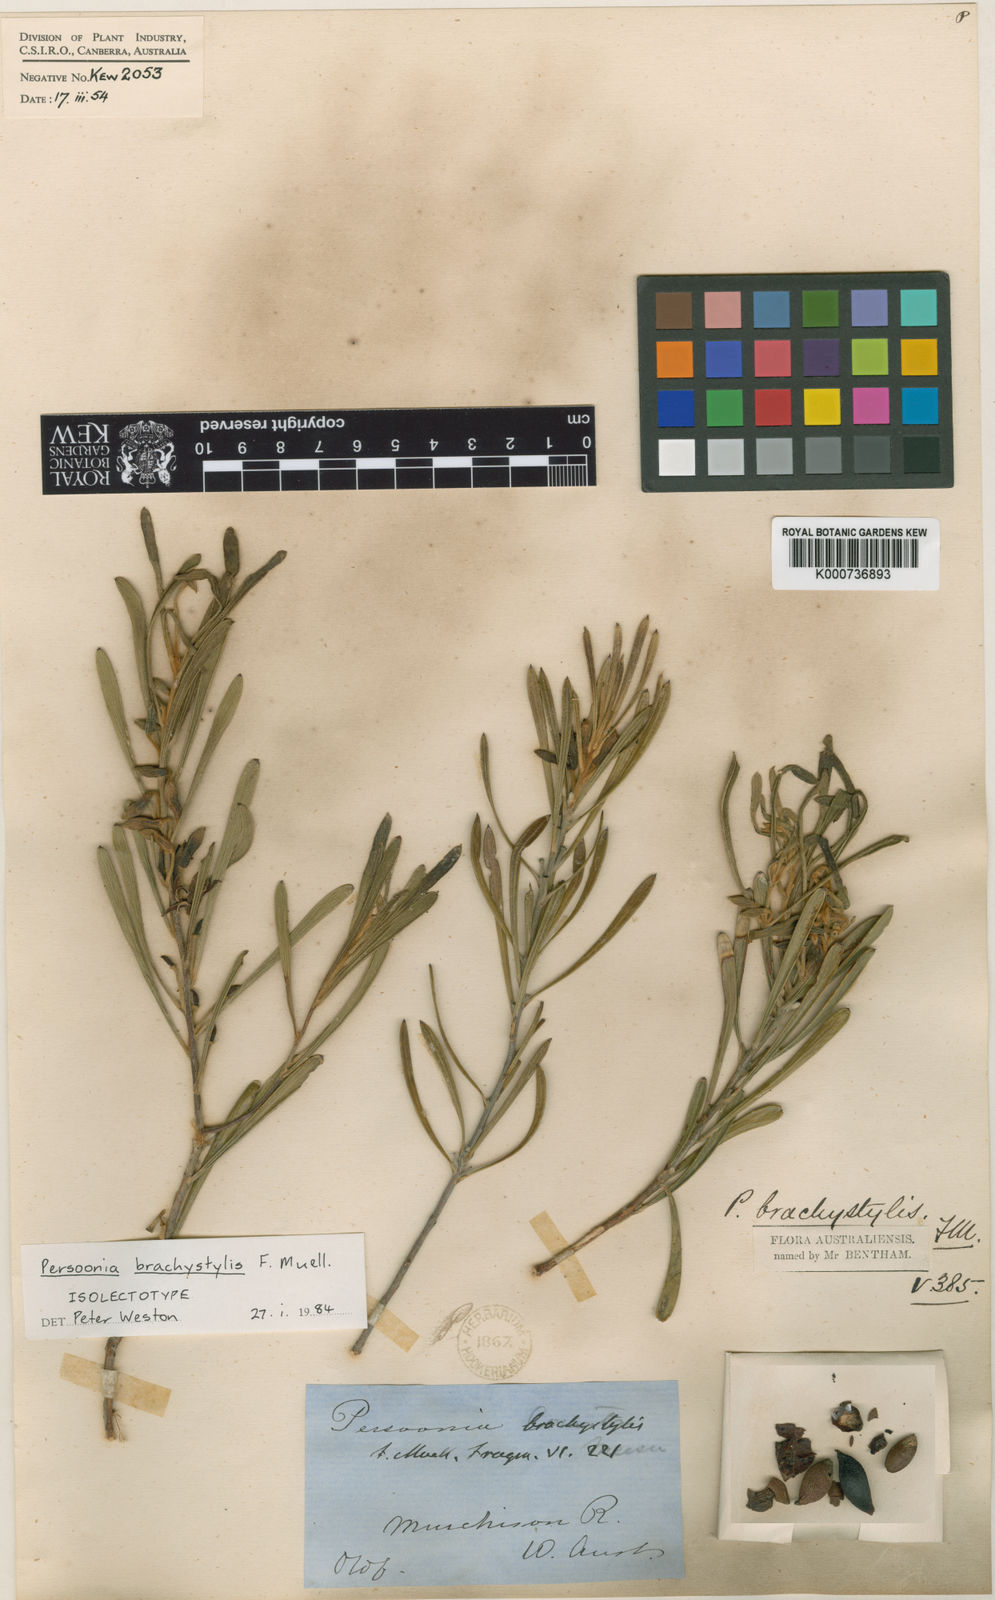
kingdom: Plantae
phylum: Tracheophyta
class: Magnoliopsida
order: Proteales
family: Proteaceae
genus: Persoonia
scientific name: Persoonia brachystylis
